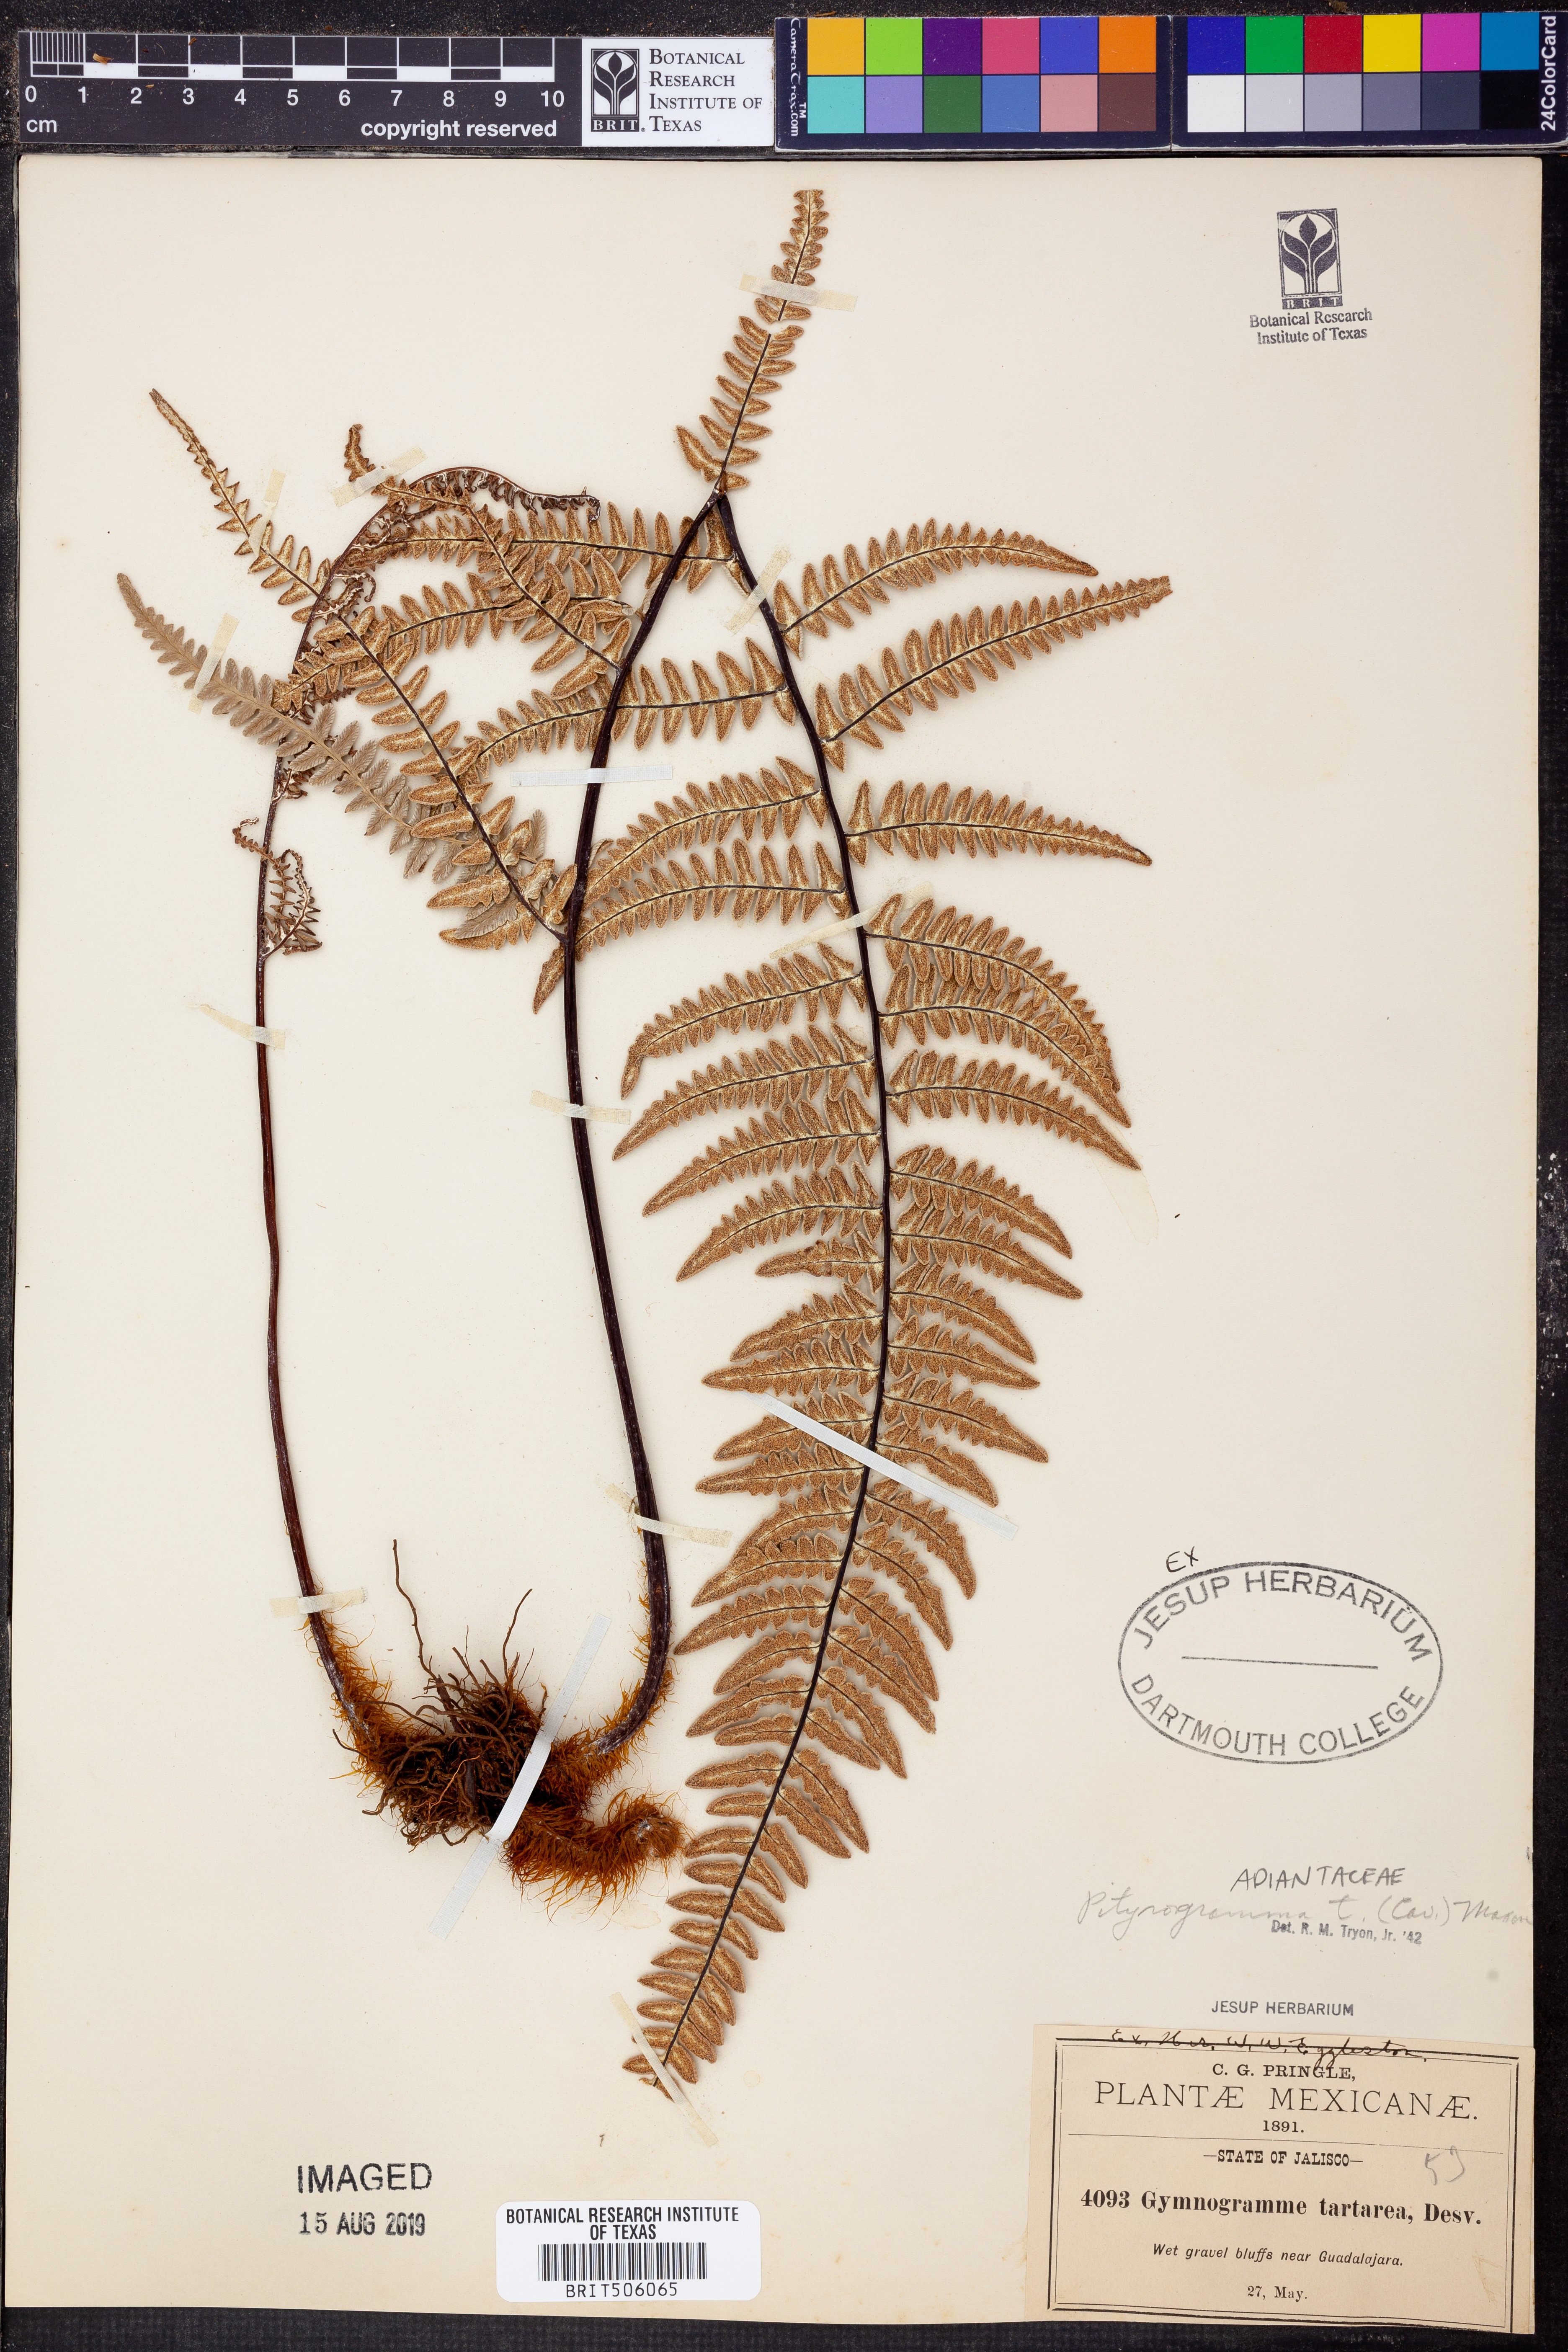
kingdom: Plantae
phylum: Tracheophyta
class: Polypodiopsida
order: Polypodiales
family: Pteridaceae
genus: Pityrogramma
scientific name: Pityrogramma ebenea
